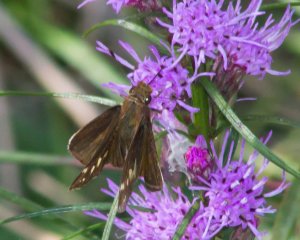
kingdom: Animalia
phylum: Arthropoda
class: Insecta
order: Lepidoptera
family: Hesperiidae
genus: Lon
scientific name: Lon zabulon
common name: Zabulon Skipper
